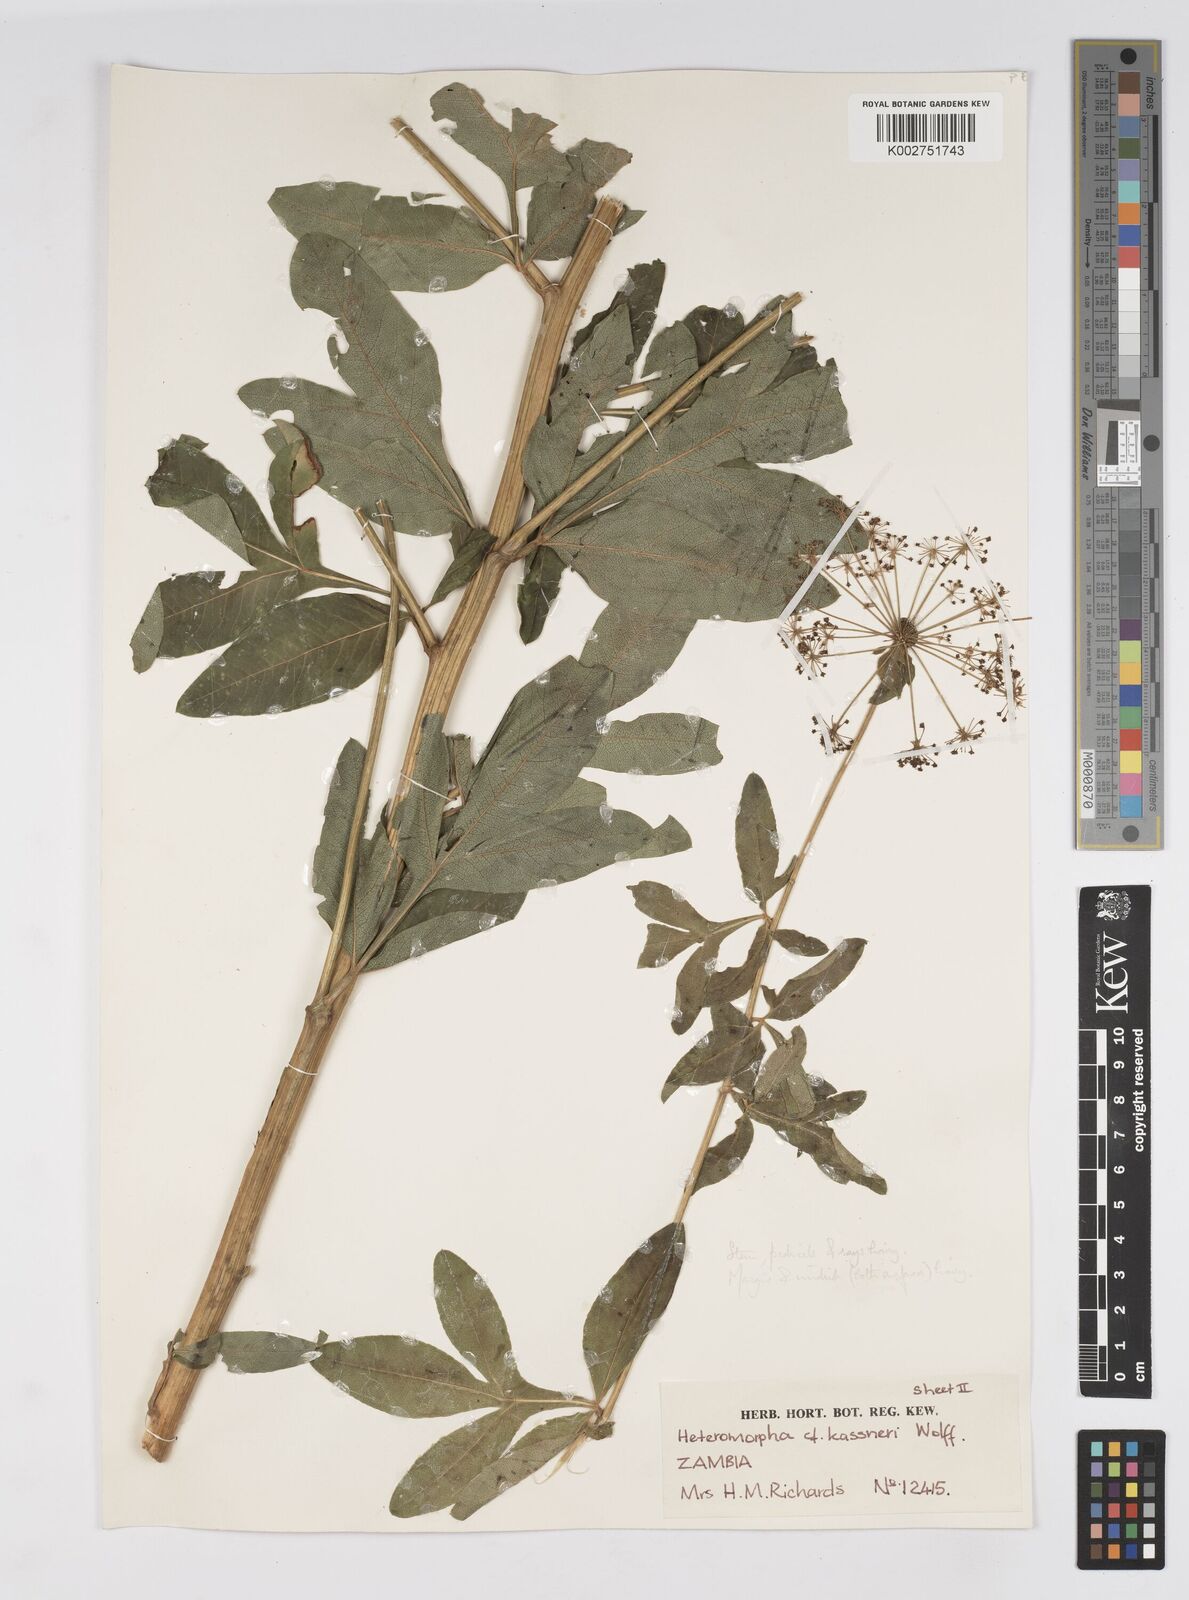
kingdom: Plantae
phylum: Tracheophyta
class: Magnoliopsida
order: Apiales
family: Apiaceae
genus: Heteromorpha
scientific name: Heteromorpha involucrata
